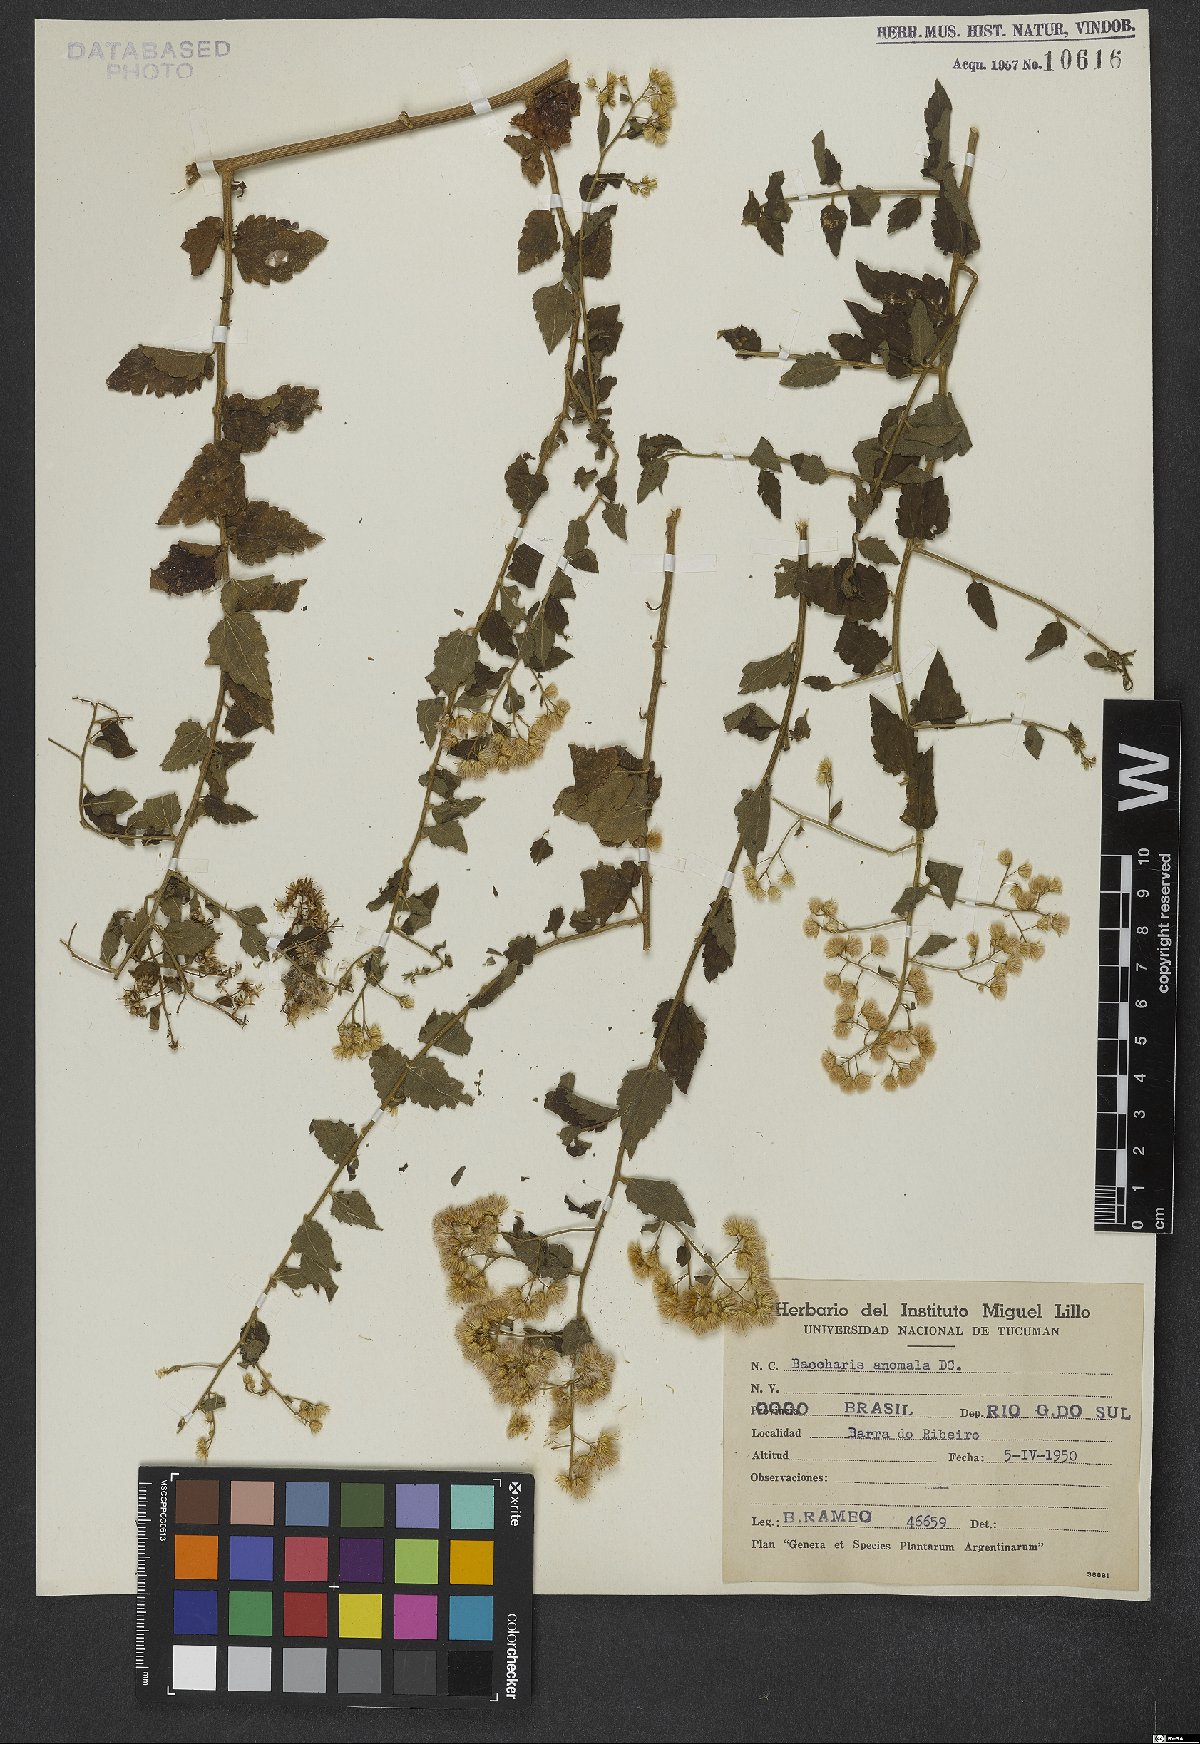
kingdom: Plantae
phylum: Tracheophyta
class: Magnoliopsida
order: Asterales
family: Asteraceae
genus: Baccharis
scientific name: Baccharis anomala
